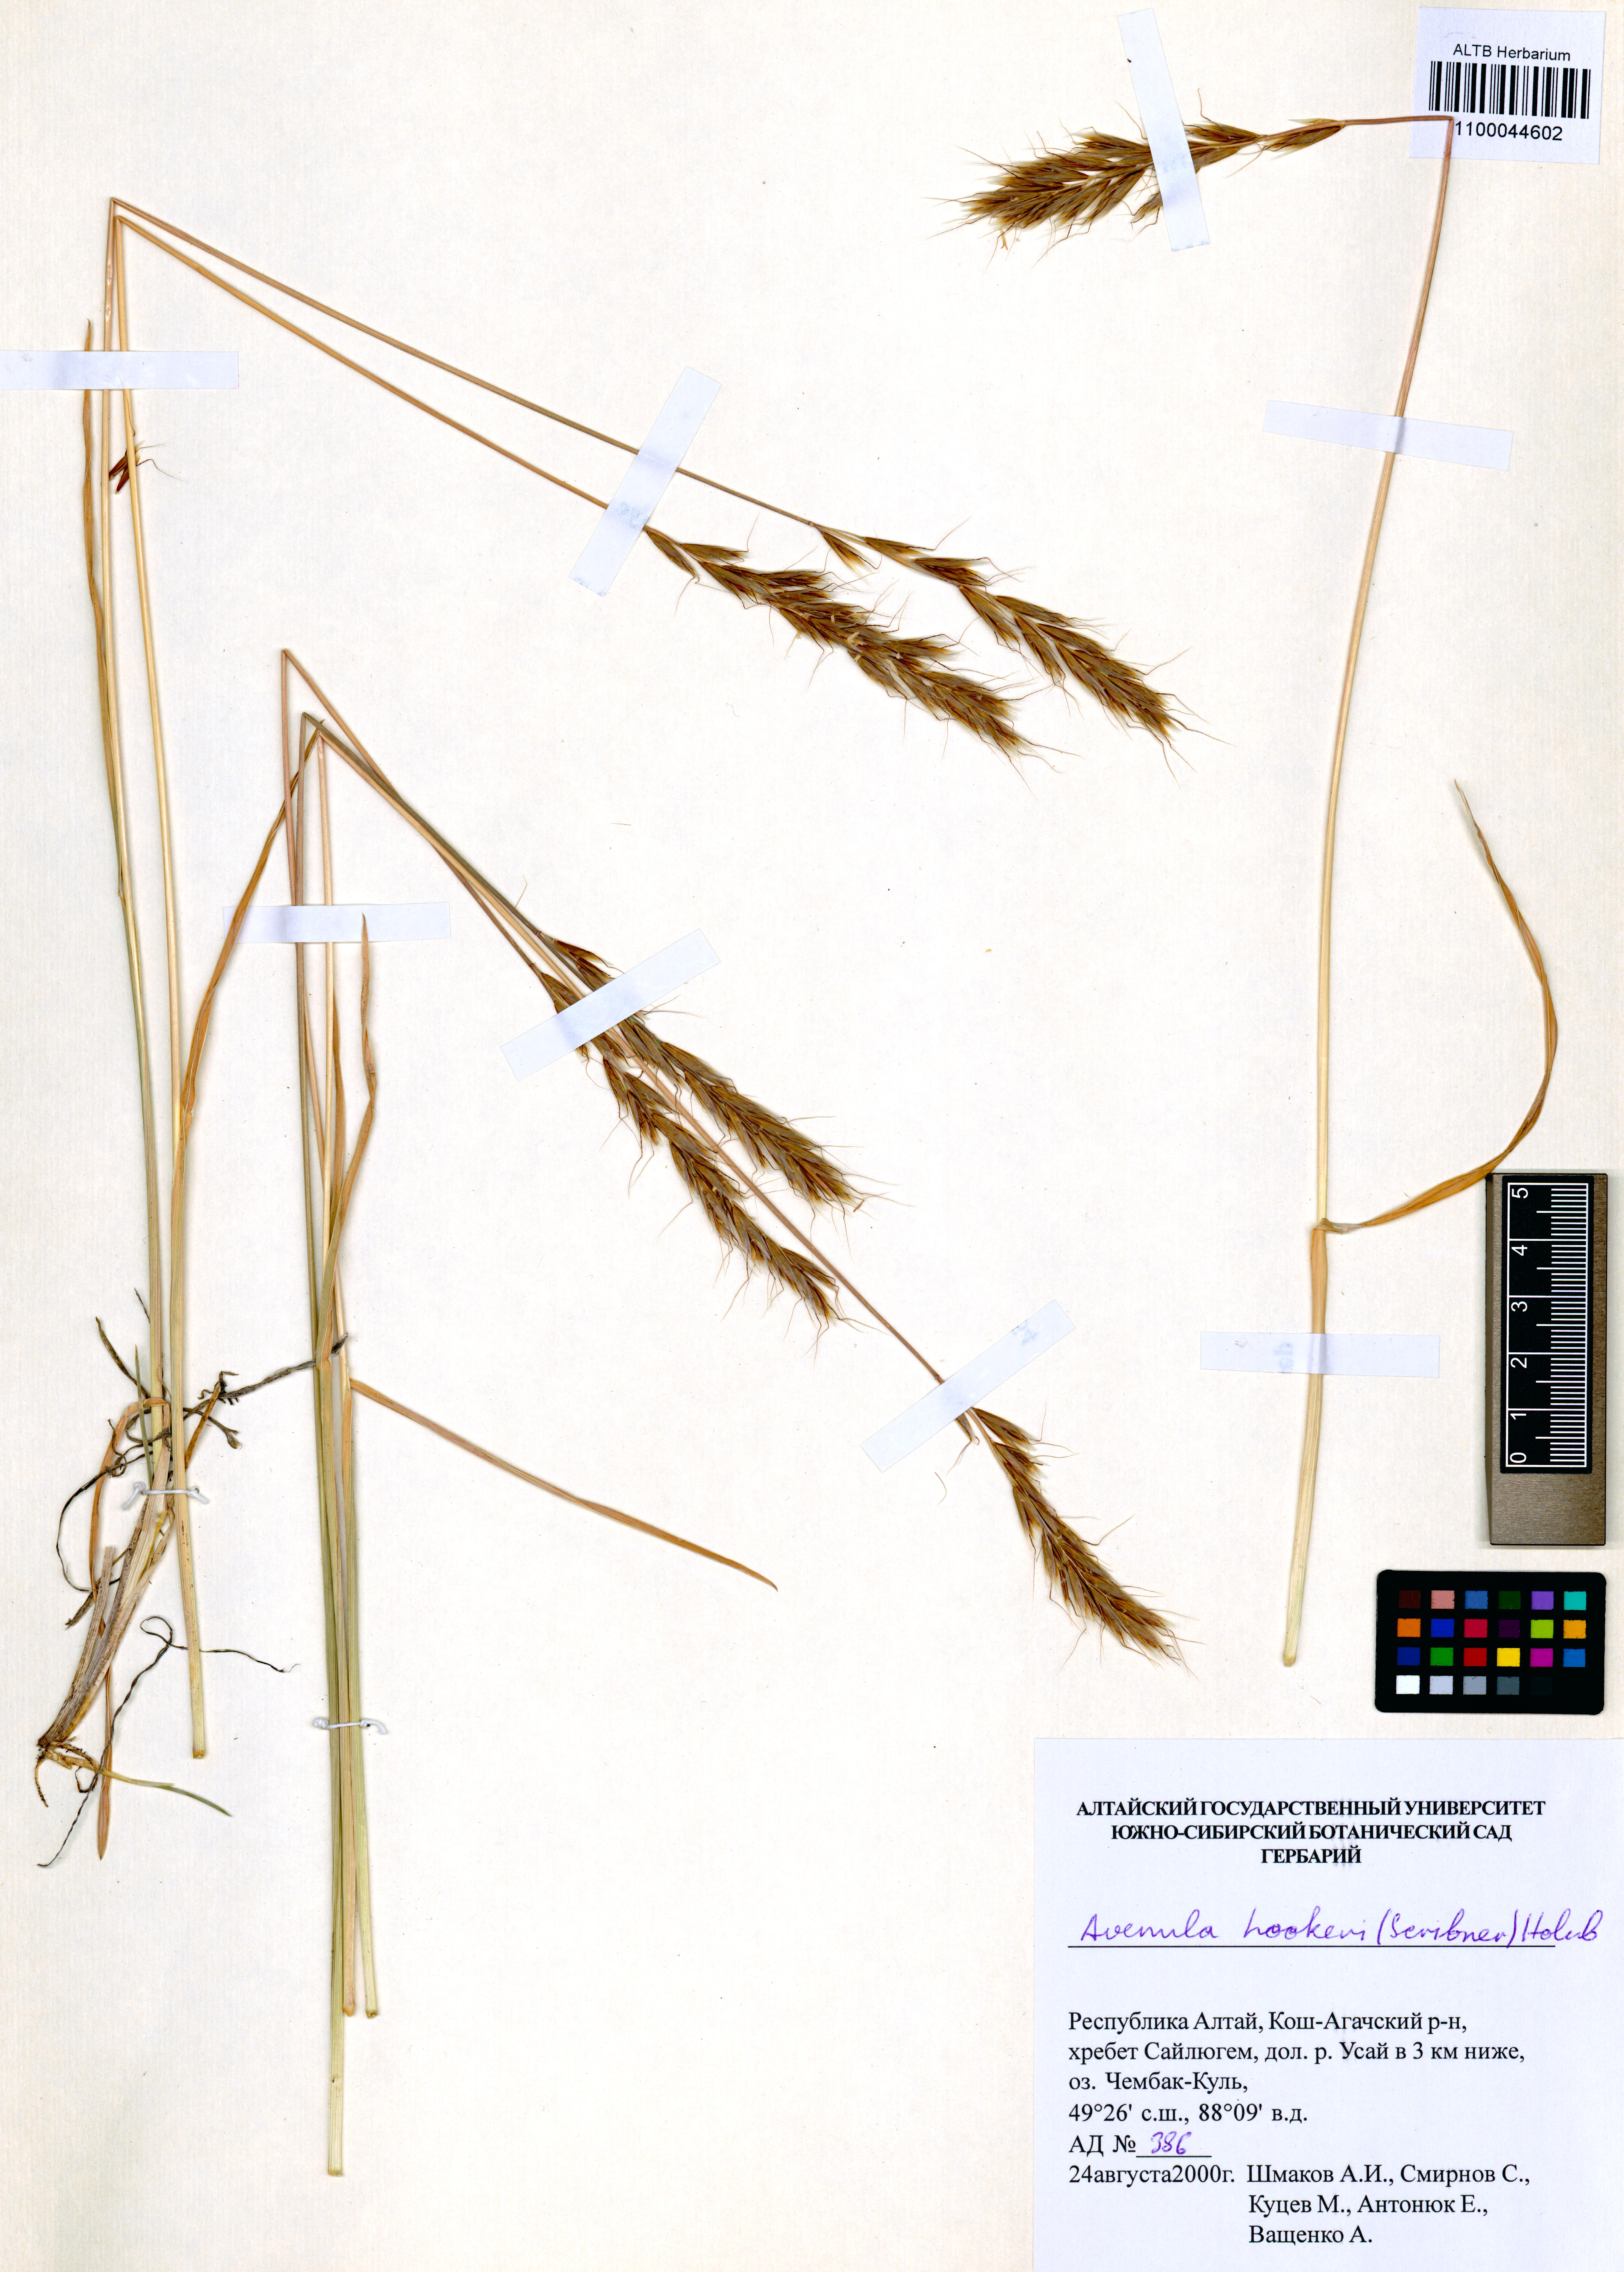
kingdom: Plantae
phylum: Tracheophyta
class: Liliopsida
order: Poales
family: Poaceae
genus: Helictochloa
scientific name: Helictochloa hookeri
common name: Hooker's alpine oatgrass
